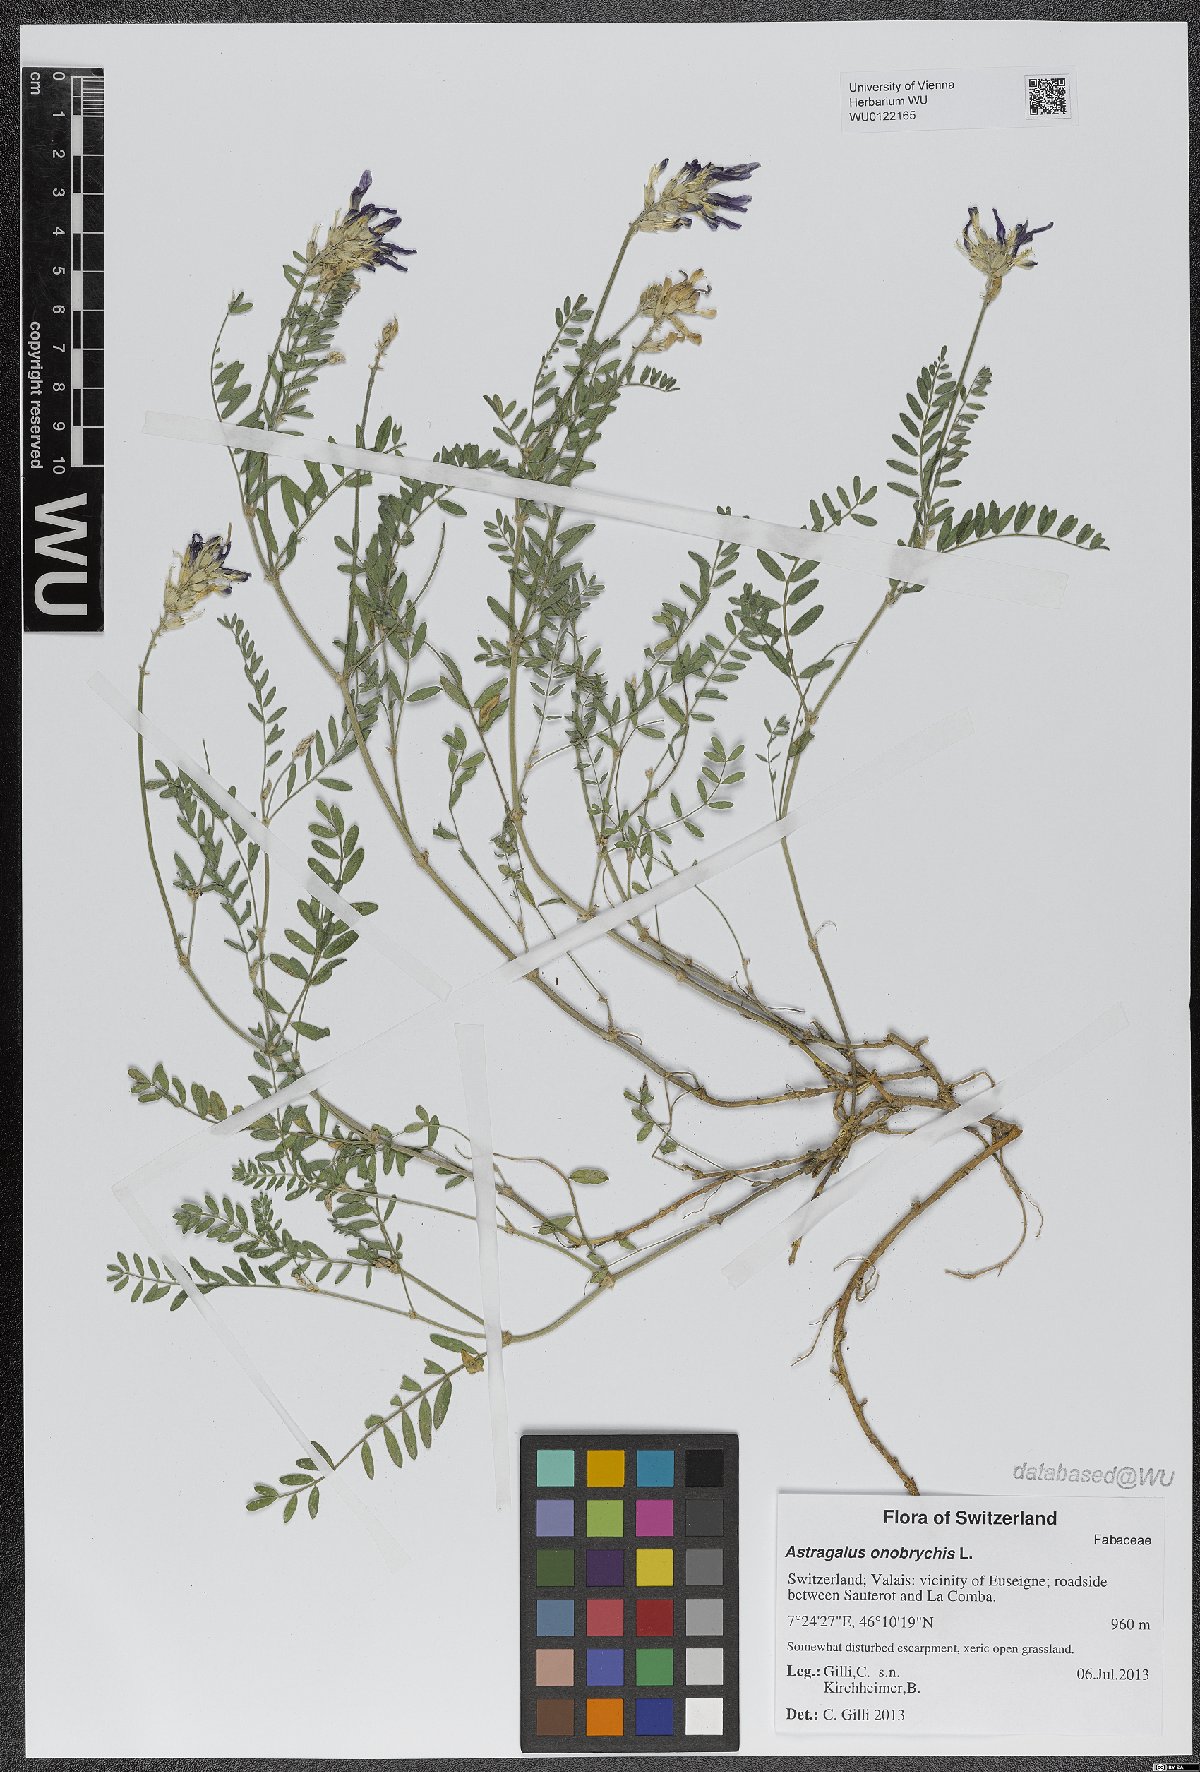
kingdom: Plantae
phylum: Tracheophyta
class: Magnoliopsida
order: Fabales
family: Fabaceae
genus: Astragalus
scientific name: Astragalus onobrychis
